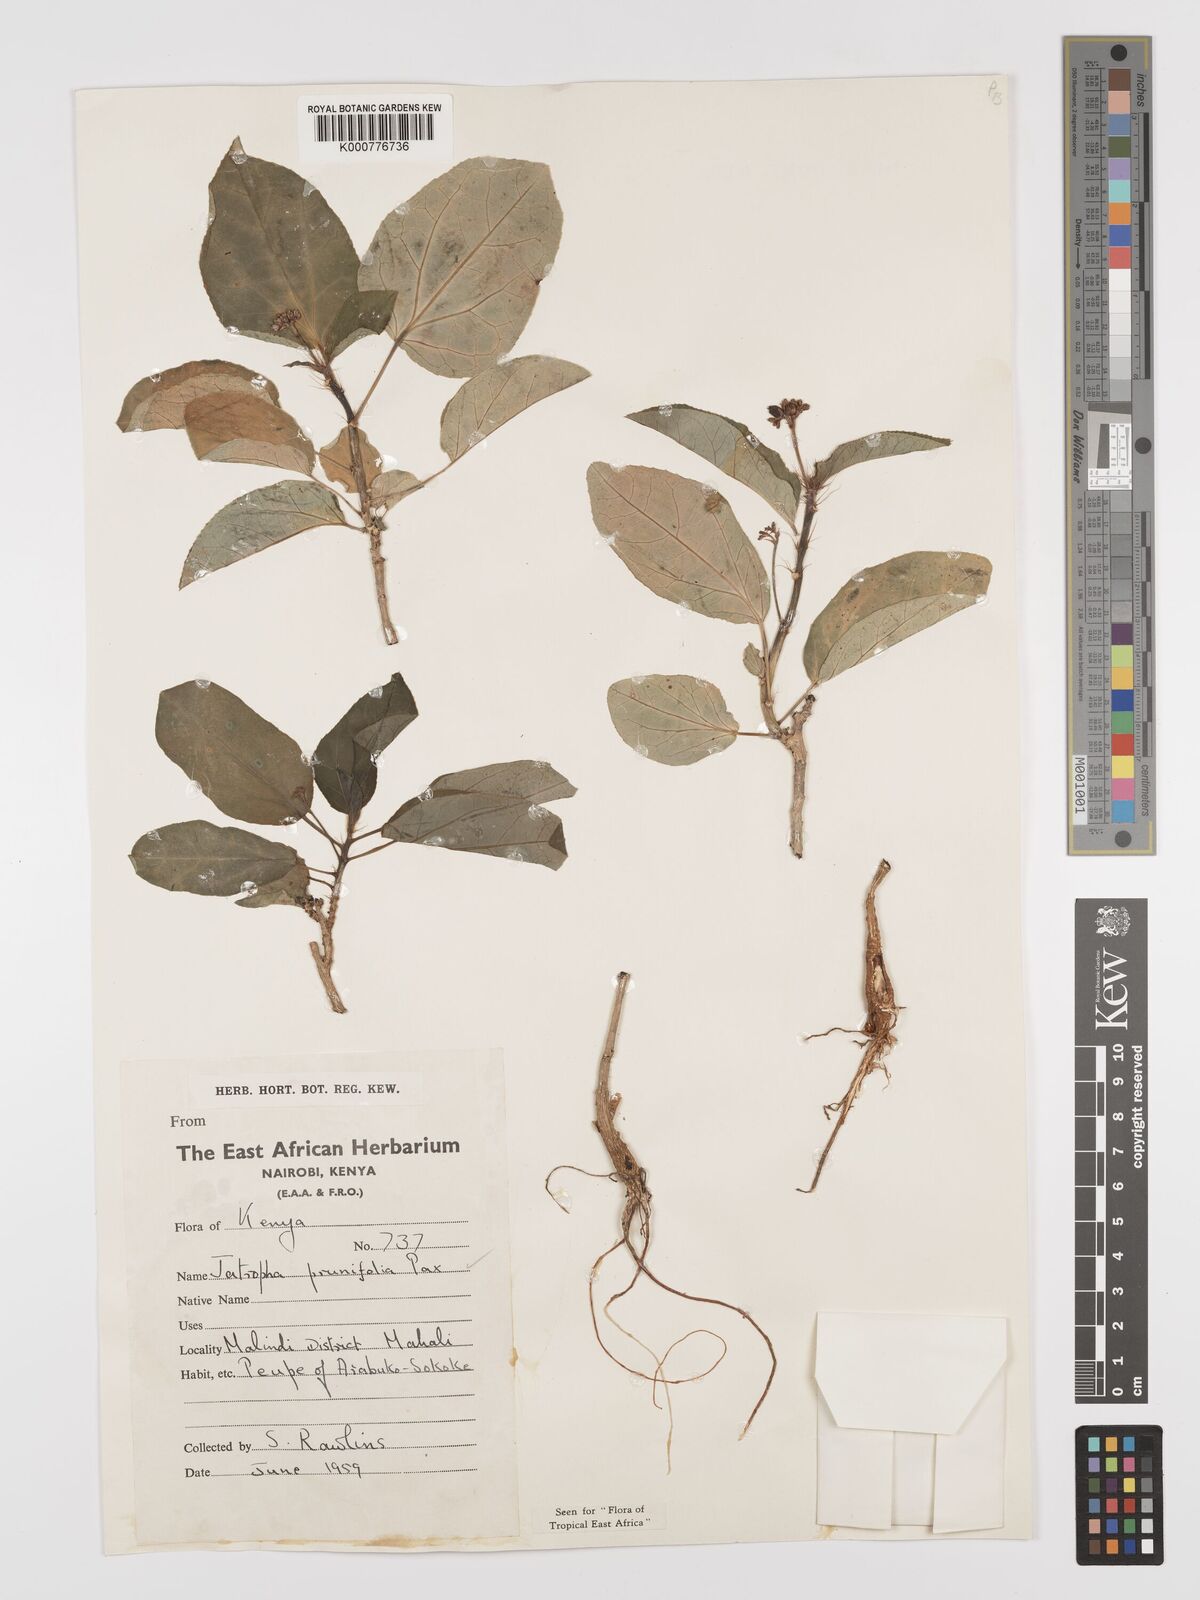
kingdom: Plantae
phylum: Tracheophyta
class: Magnoliopsida
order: Malpighiales
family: Euphorbiaceae
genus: Jatropha
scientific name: Jatropha
